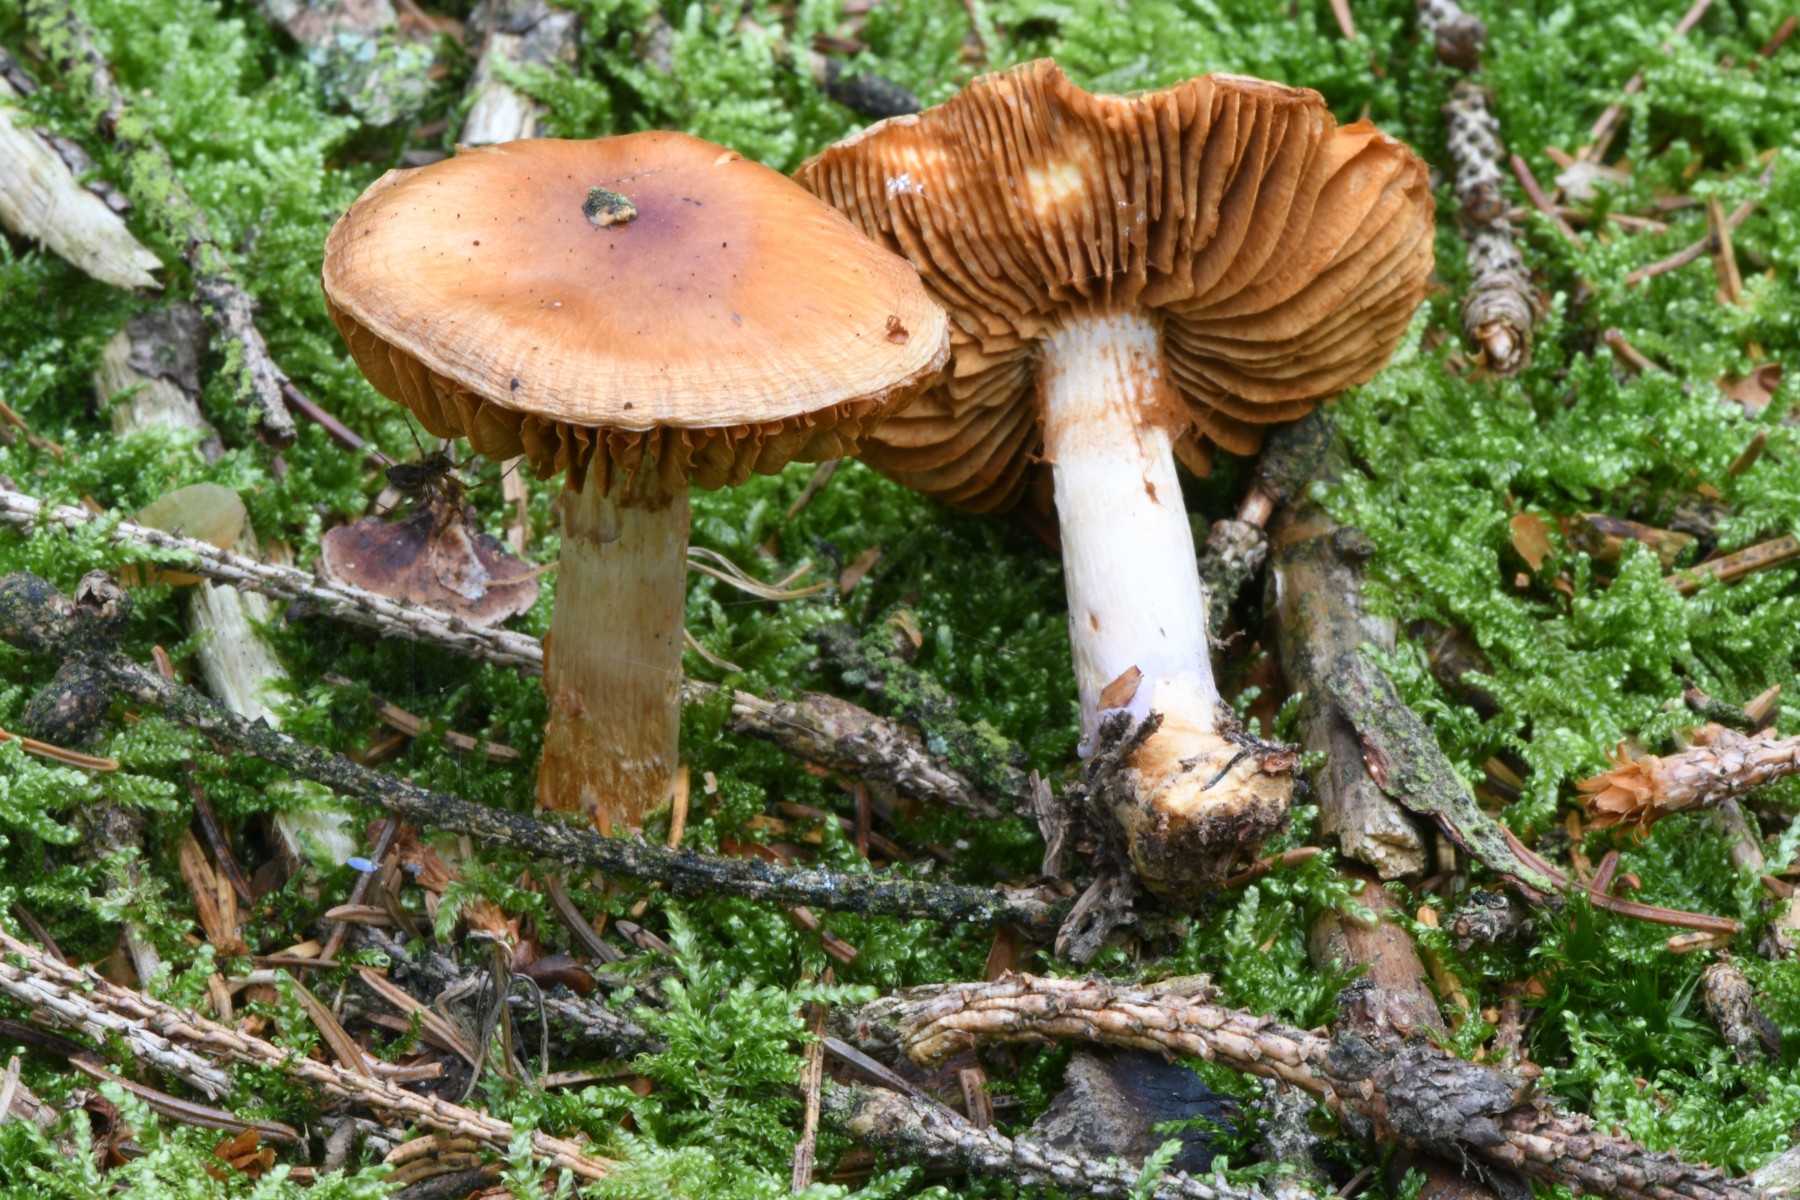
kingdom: Fungi
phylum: Basidiomycota
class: Agaricomycetes
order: Agaricales
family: Cortinariaceae
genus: Cortinarius
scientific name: Cortinarius collinitus
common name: spættet slørhat
